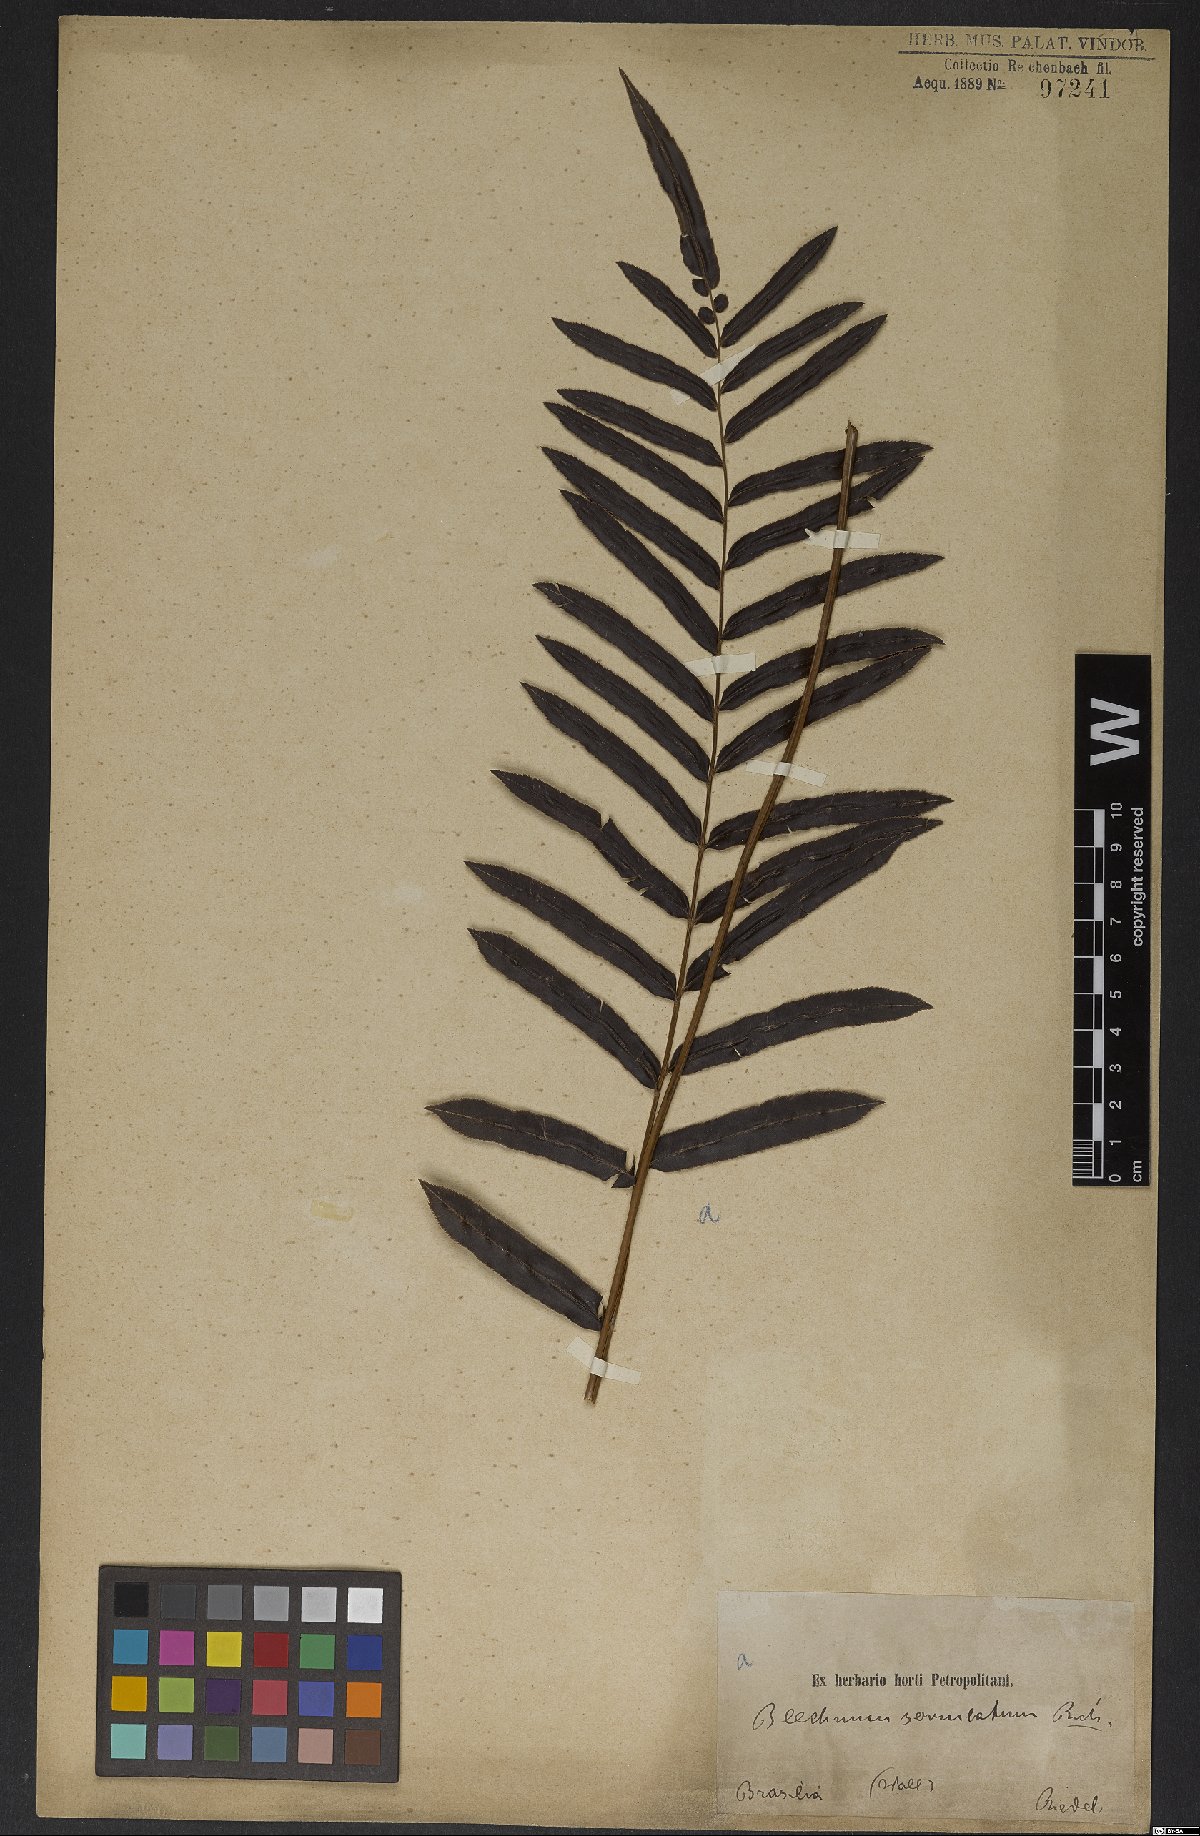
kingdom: Plantae
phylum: Tracheophyta
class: Polypodiopsida
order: Polypodiales
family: Blechnaceae
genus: Telmatoblechnum
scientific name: Telmatoblechnum serrulatum
